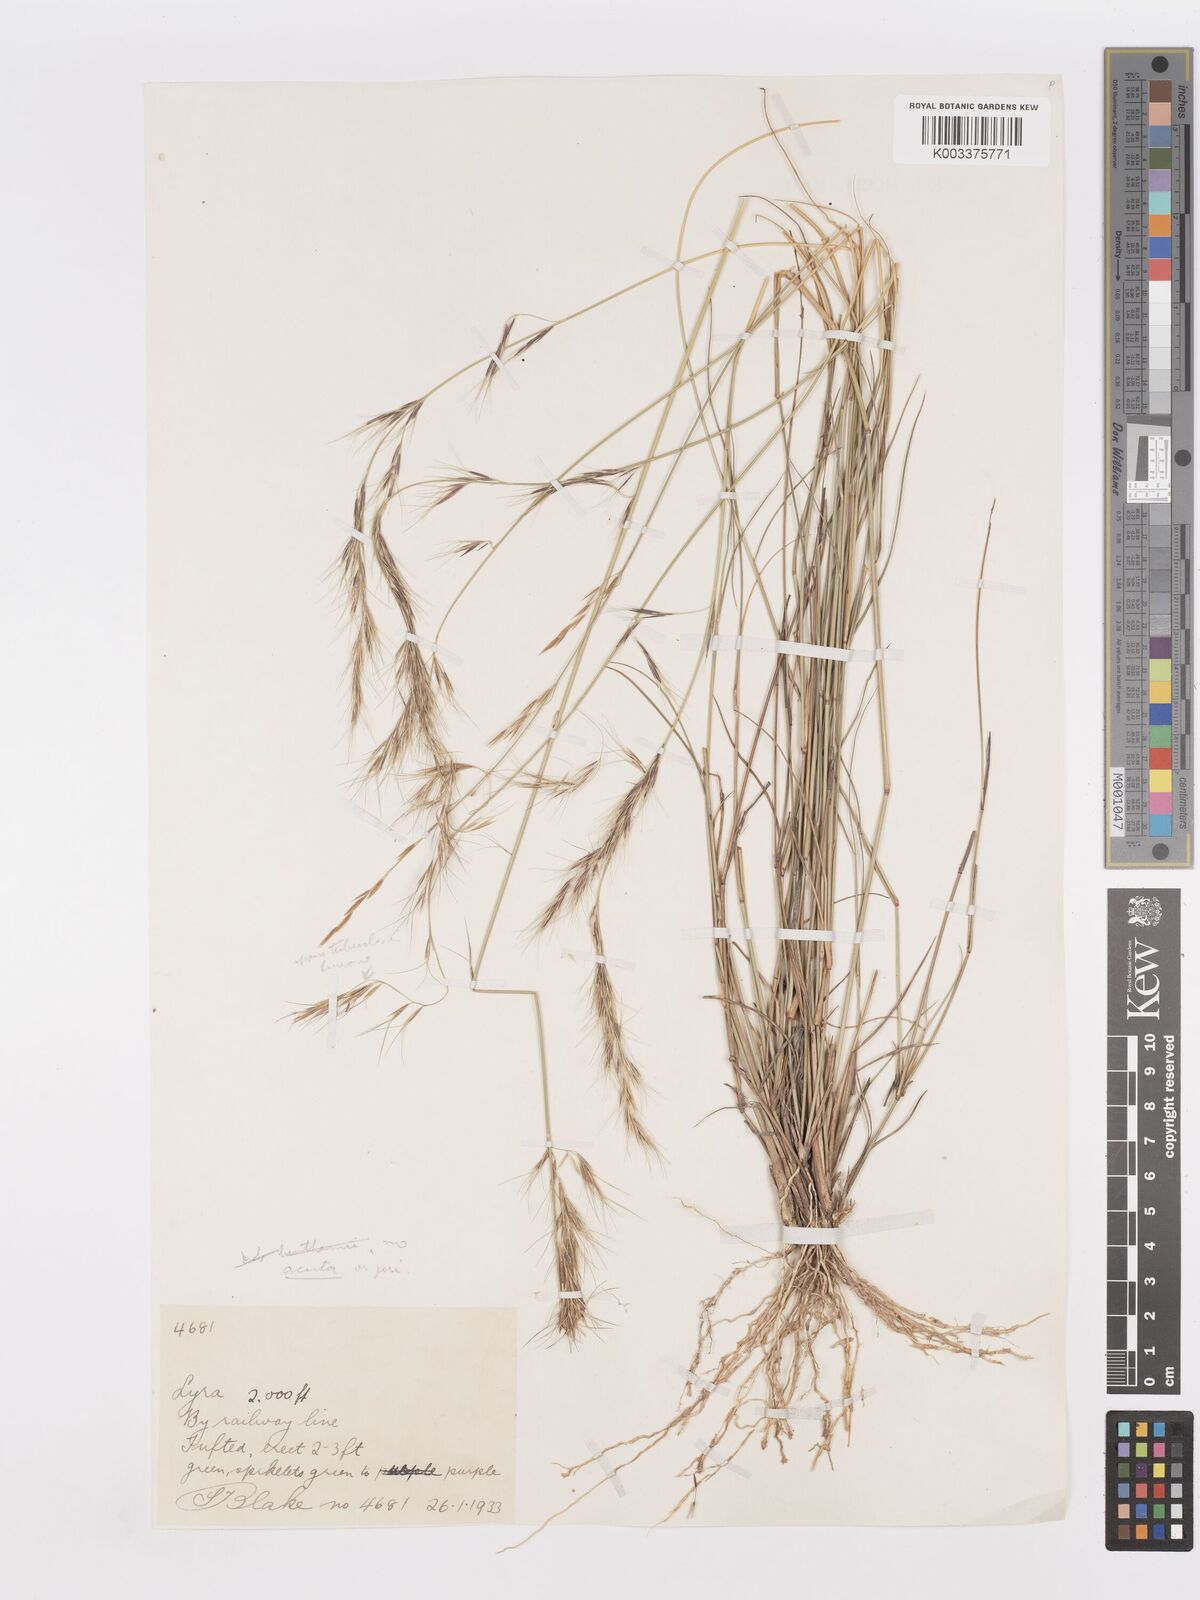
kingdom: Plantae
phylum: Tracheophyta
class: Liliopsida
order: Poales
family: Poaceae
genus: Aristida
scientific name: Aristida
